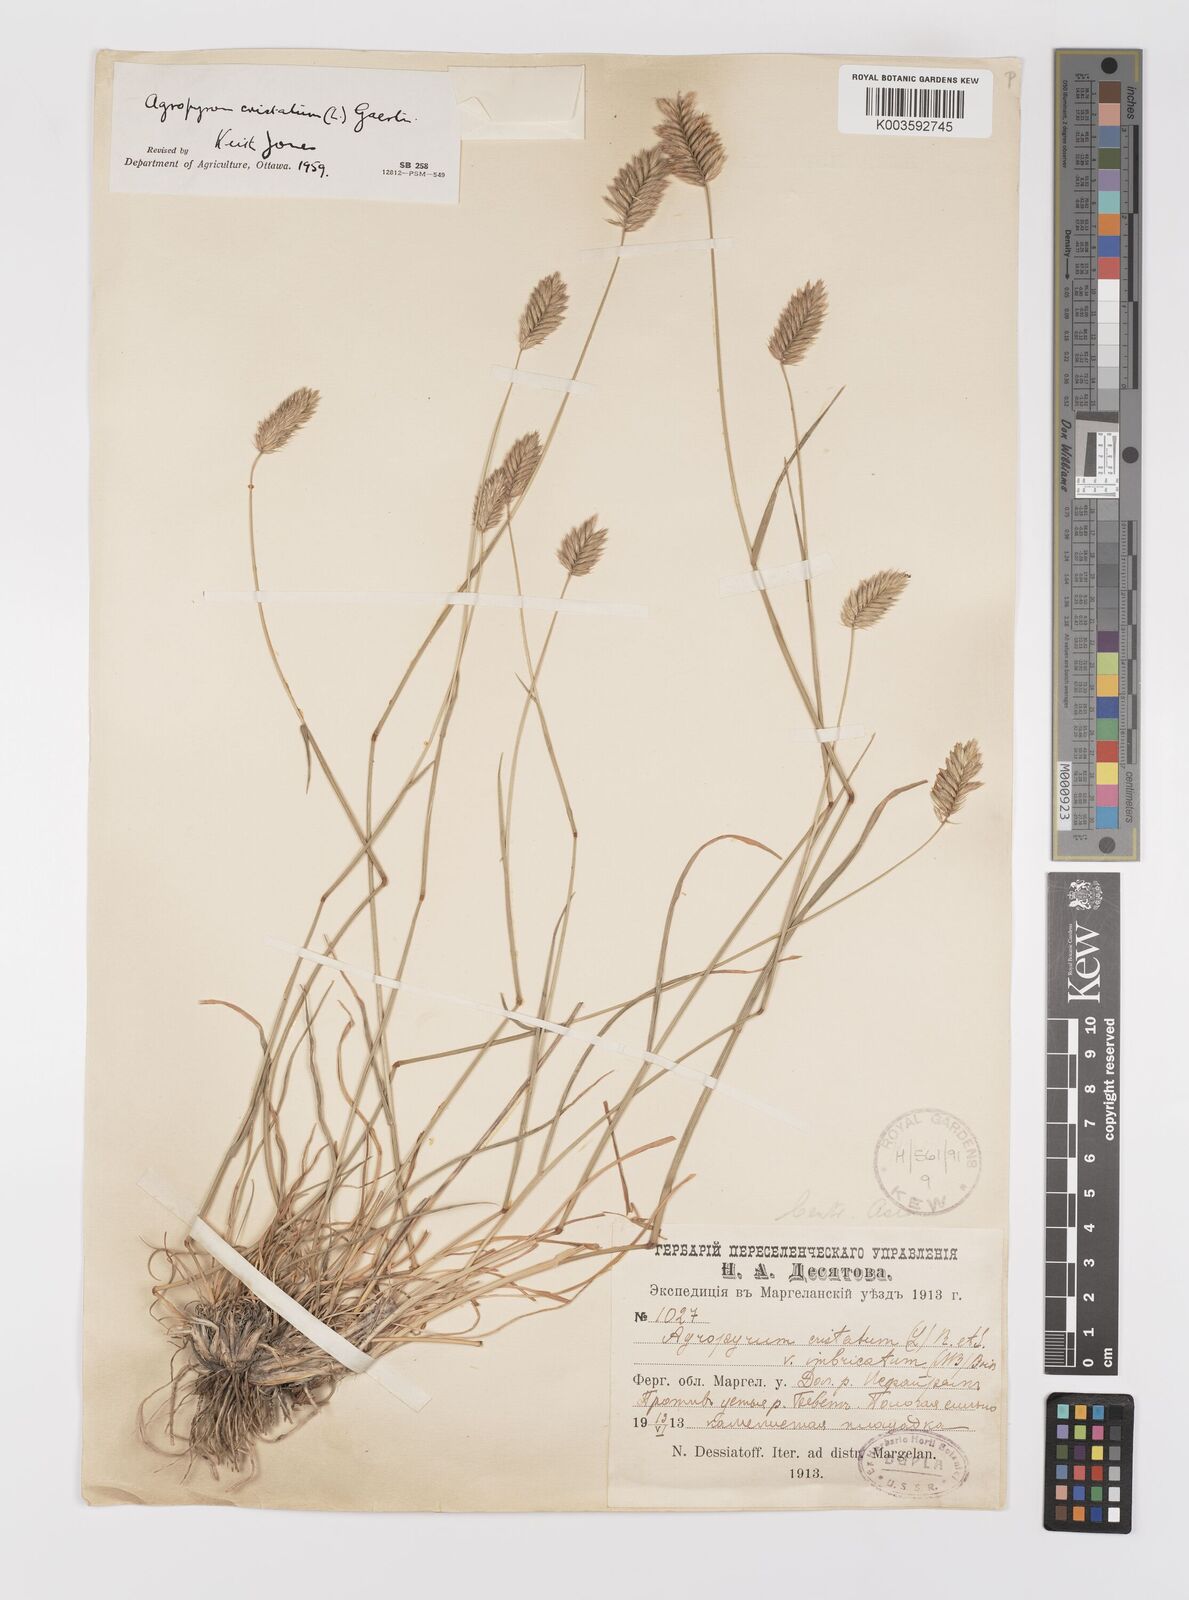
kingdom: Plantae
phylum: Tracheophyta
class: Liliopsida
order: Poales
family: Poaceae
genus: Agropyron
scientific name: Agropyron cristatum
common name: Crested wheatgrass
